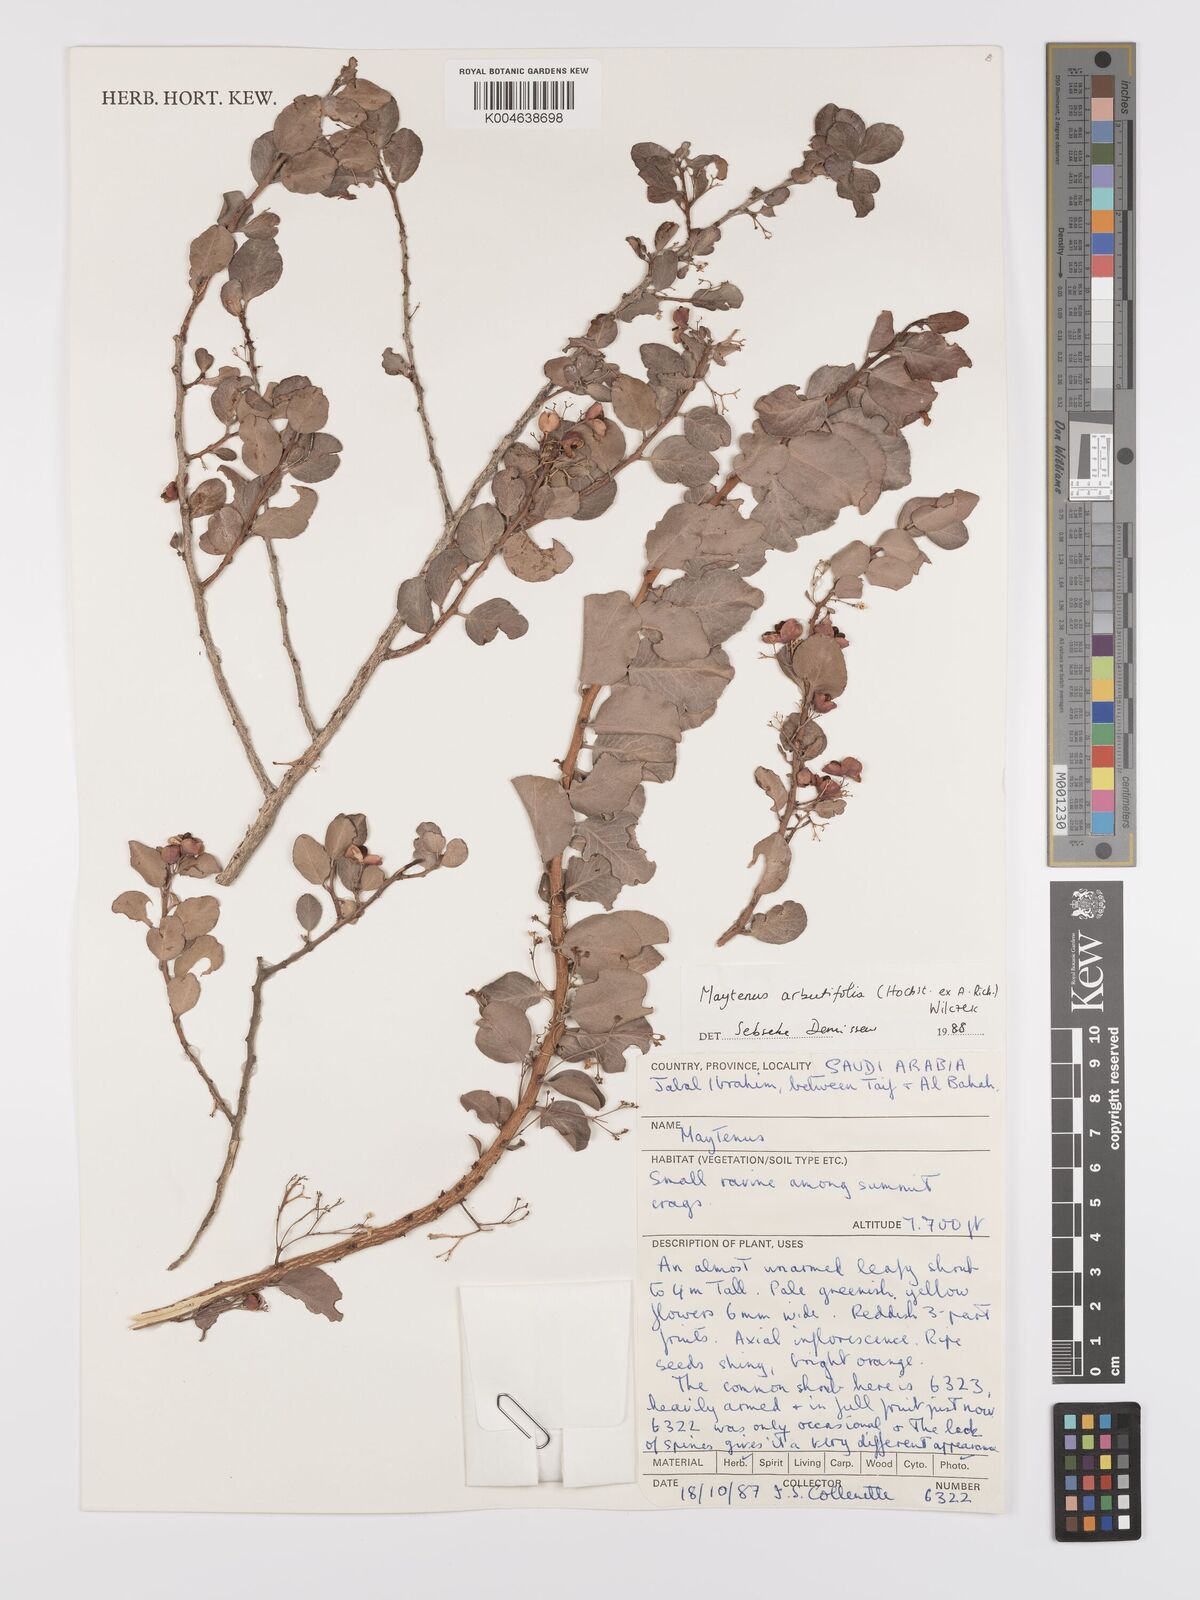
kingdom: Plantae
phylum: Tracheophyta
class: Magnoliopsida
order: Celastrales
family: Celastraceae
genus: Gymnosporia
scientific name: Gymnosporia arbutifolia
